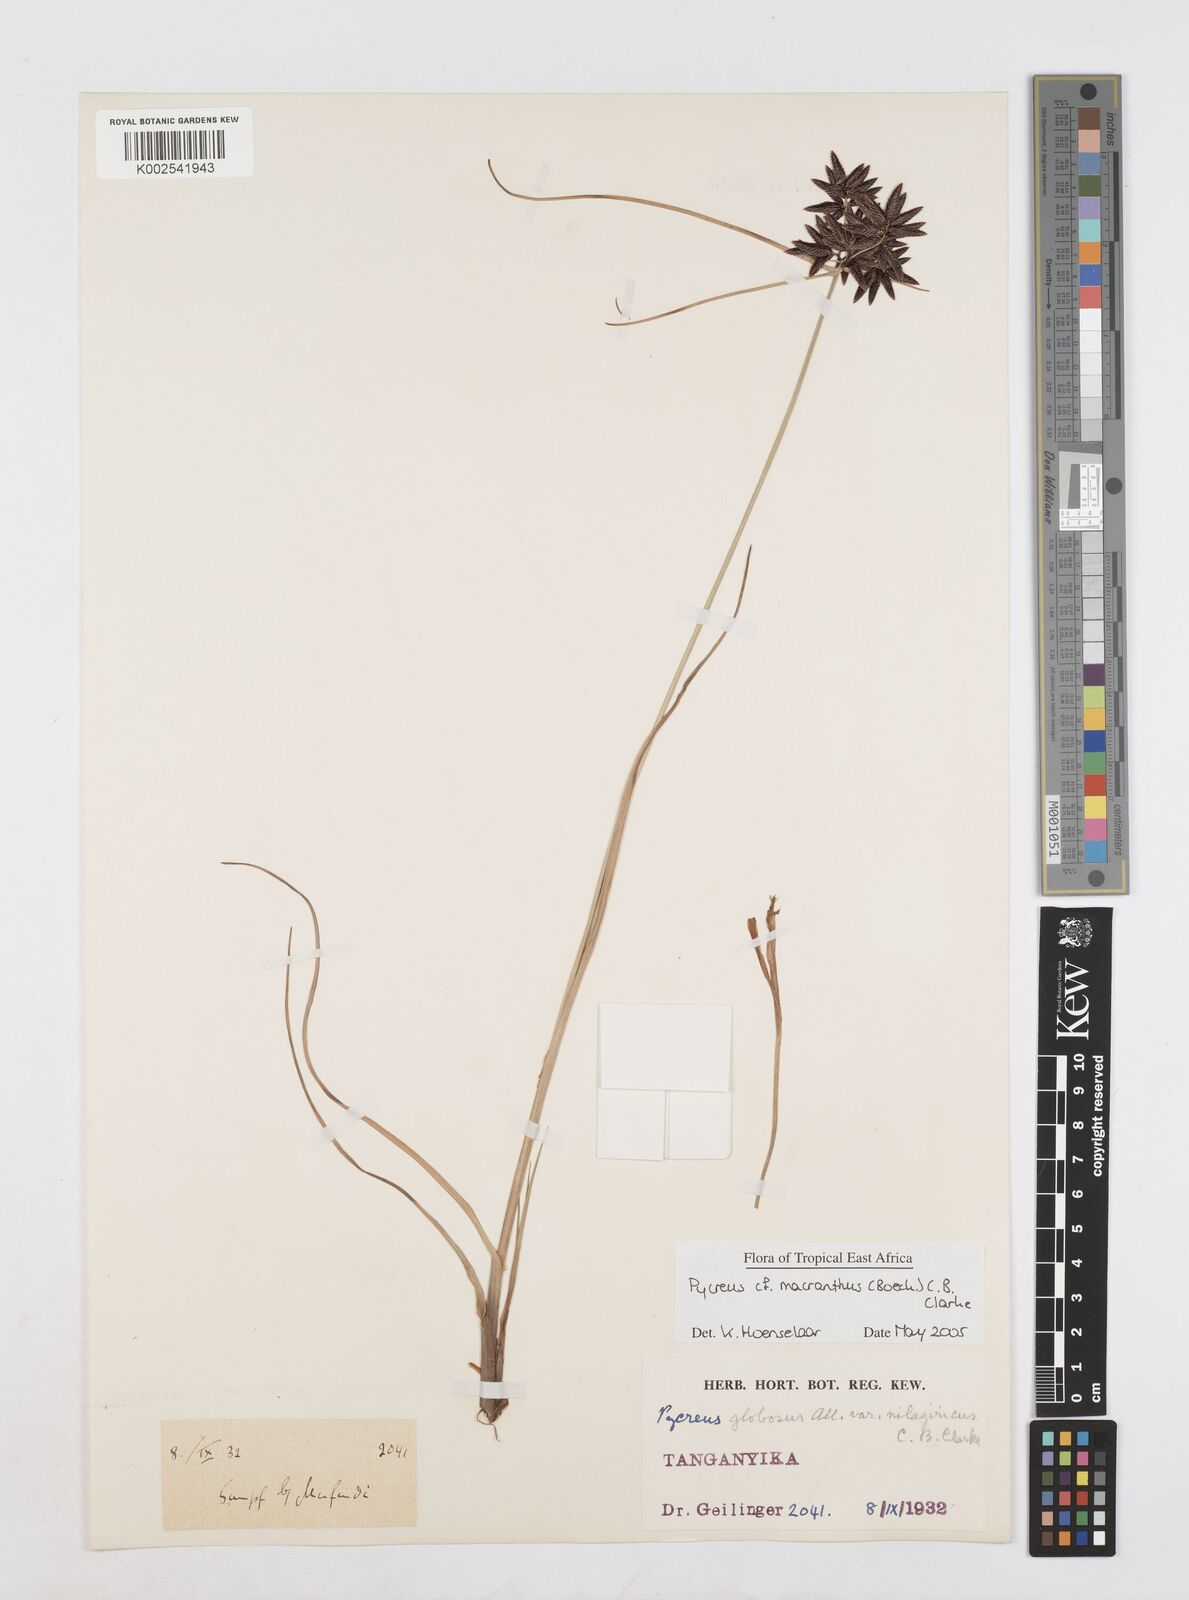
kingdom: Plantae
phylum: Tracheophyta
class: Liliopsida
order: Poales
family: Cyperaceae
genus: Cyperus
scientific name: Cyperus
